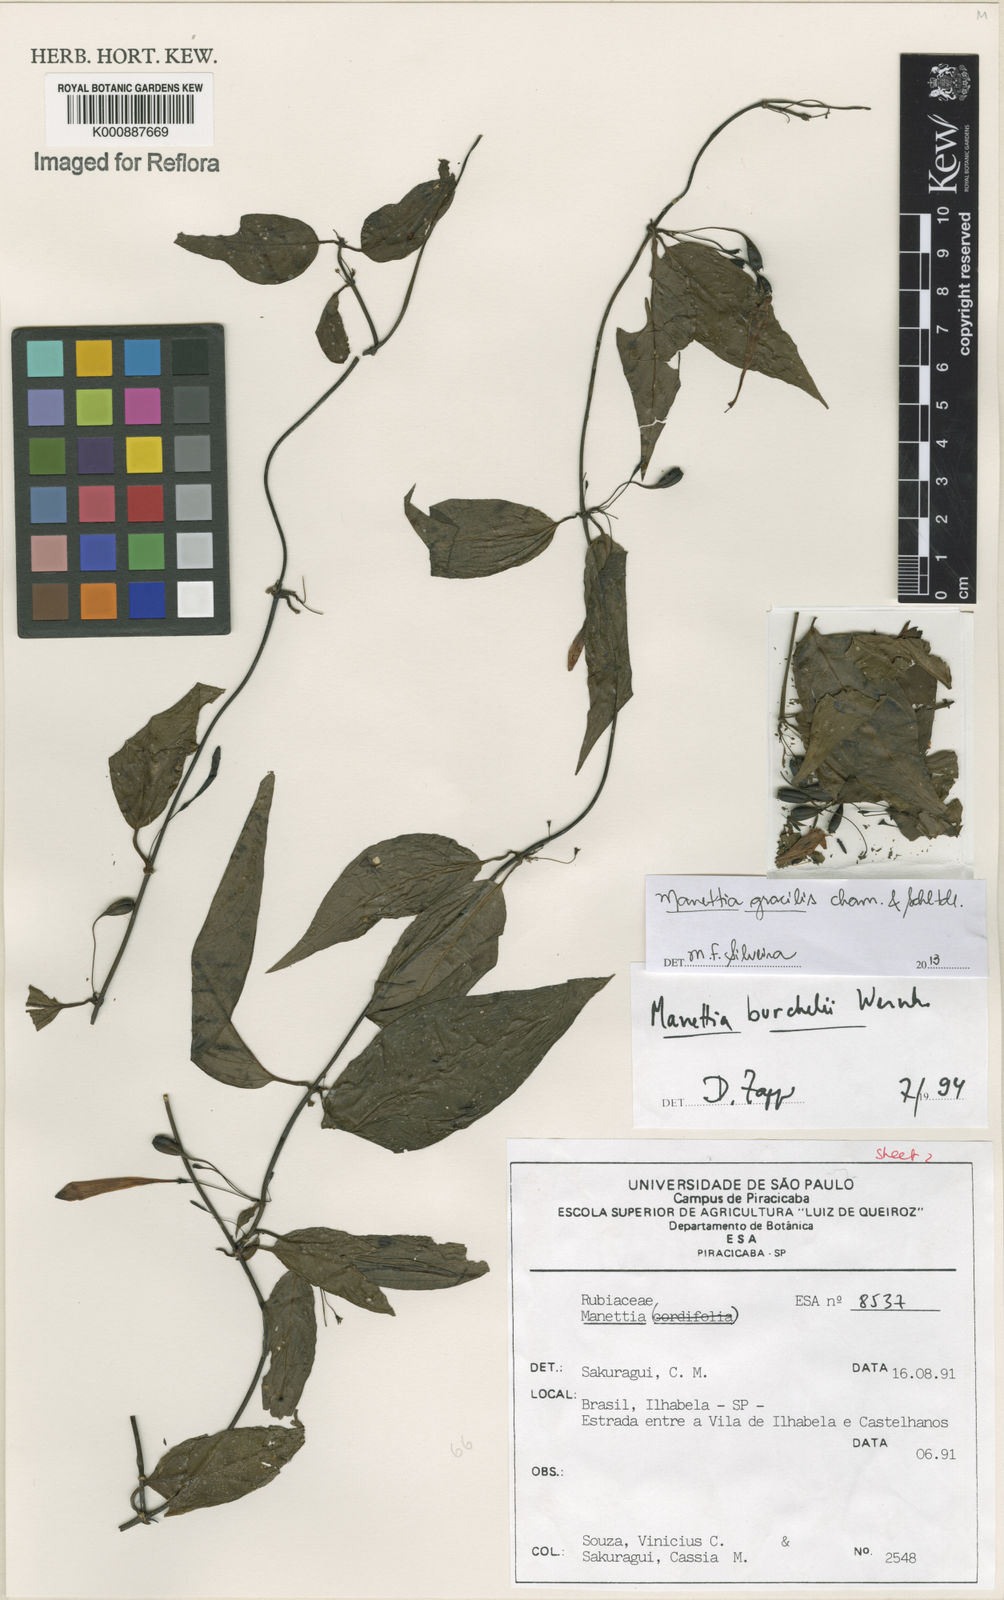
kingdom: Plantae
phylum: Tracheophyta
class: Magnoliopsida
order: Gentianales
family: Rubiaceae
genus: Manettia
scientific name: Manettia gracilis
